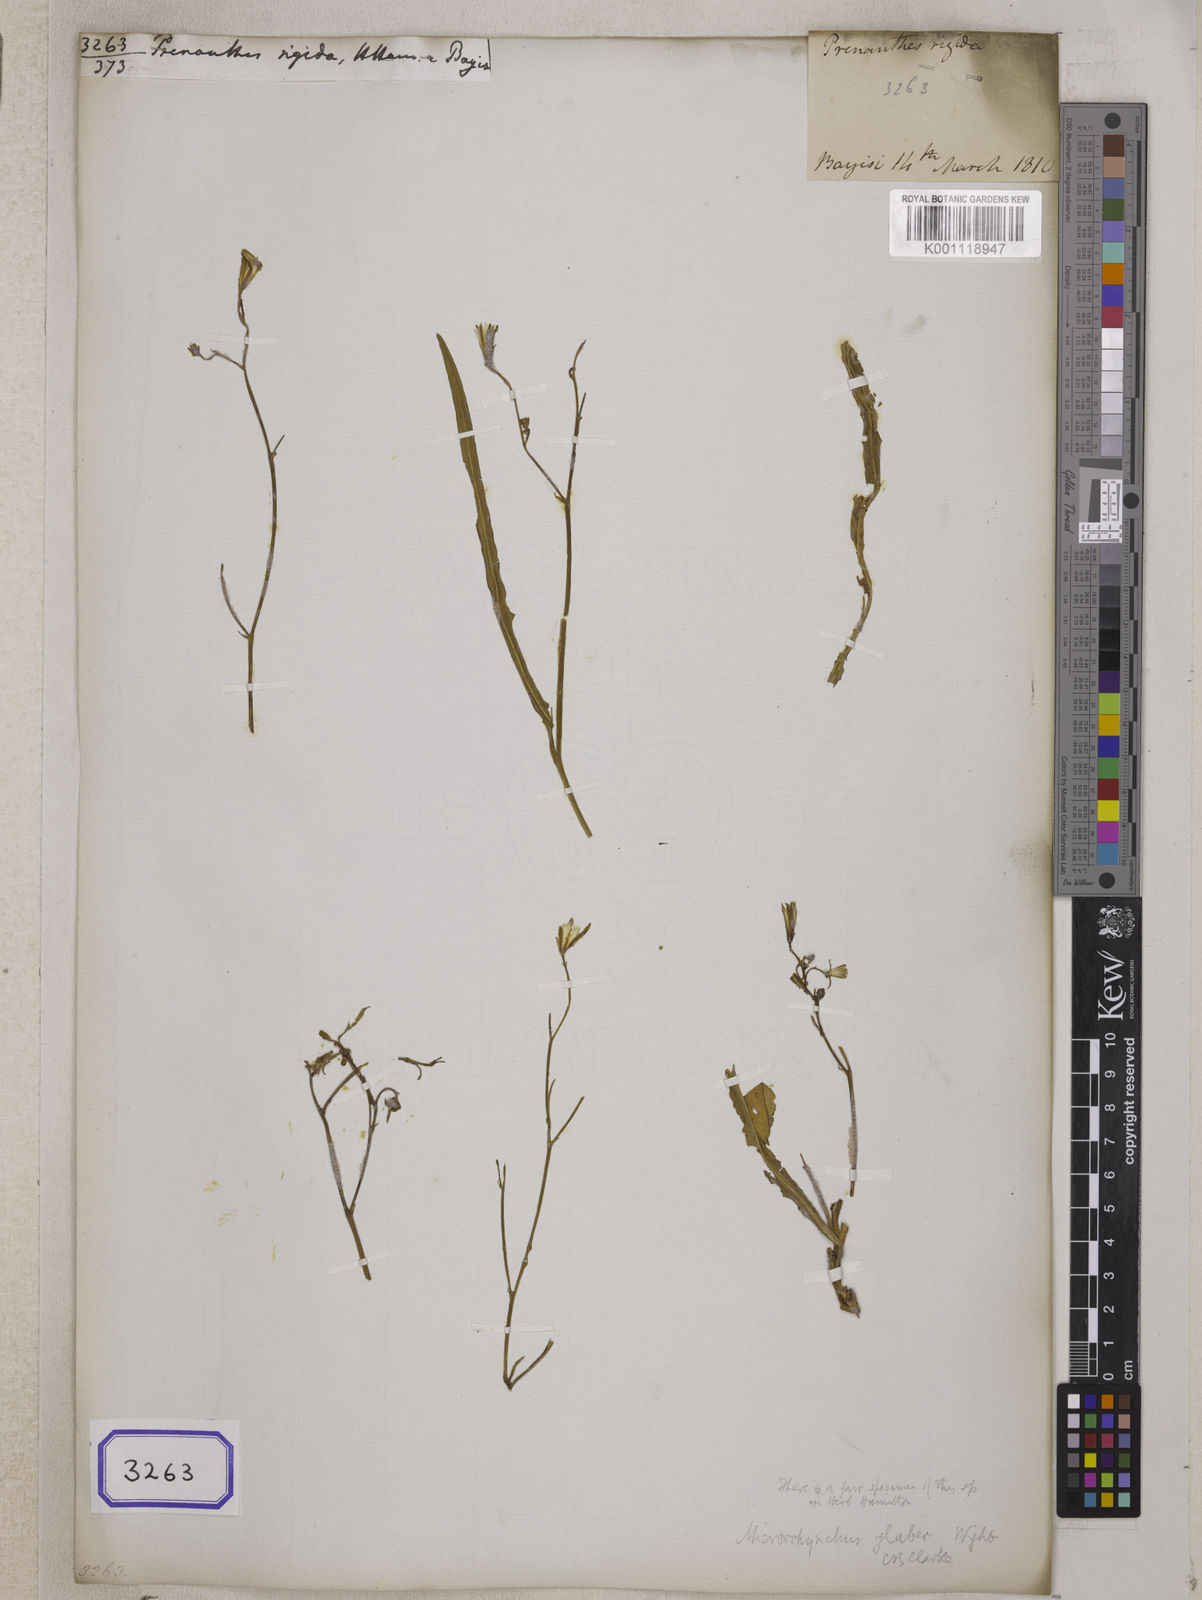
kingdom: Plantae
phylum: Tracheophyta
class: Magnoliopsida
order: Asterales
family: Asteraceae
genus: Launaea
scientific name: Launaea acaulis
